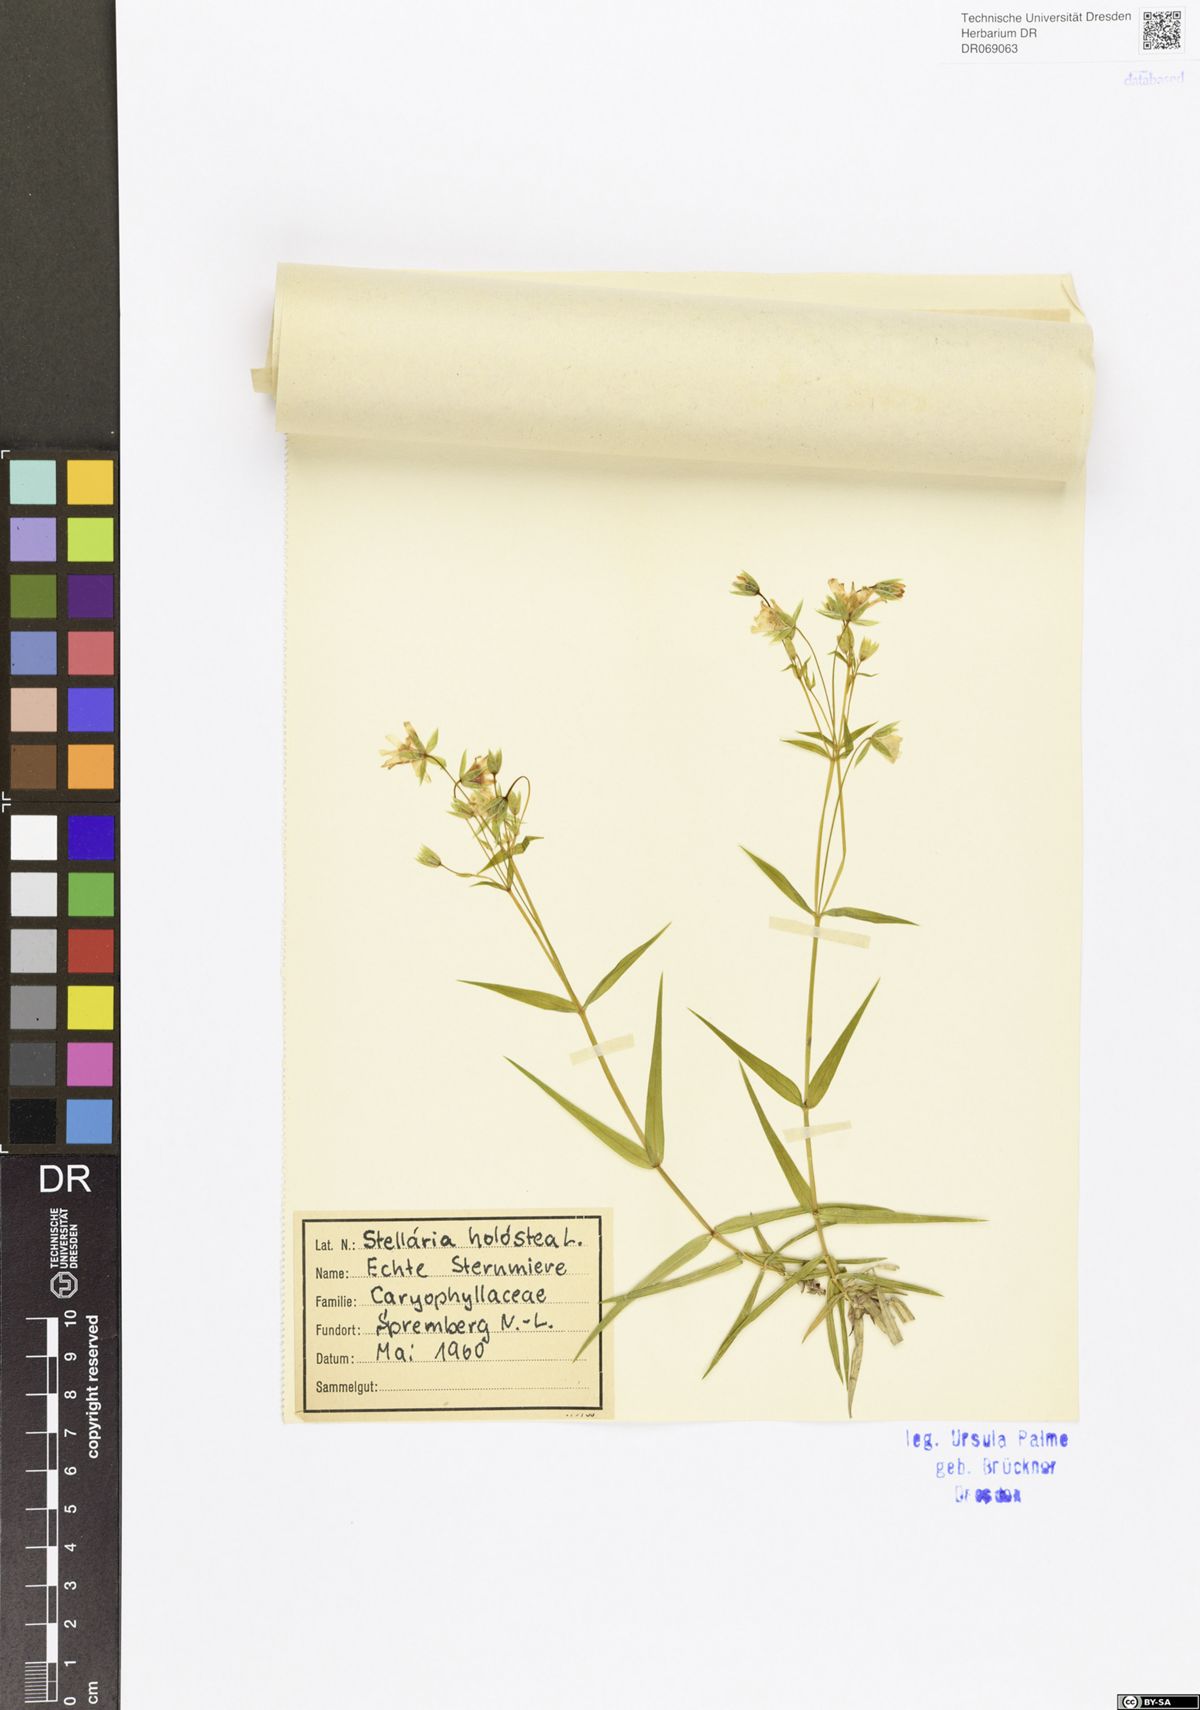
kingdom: Plantae
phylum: Tracheophyta
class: Magnoliopsida
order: Caryophyllales
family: Caryophyllaceae
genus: Rabelera
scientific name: Rabelera holostea
